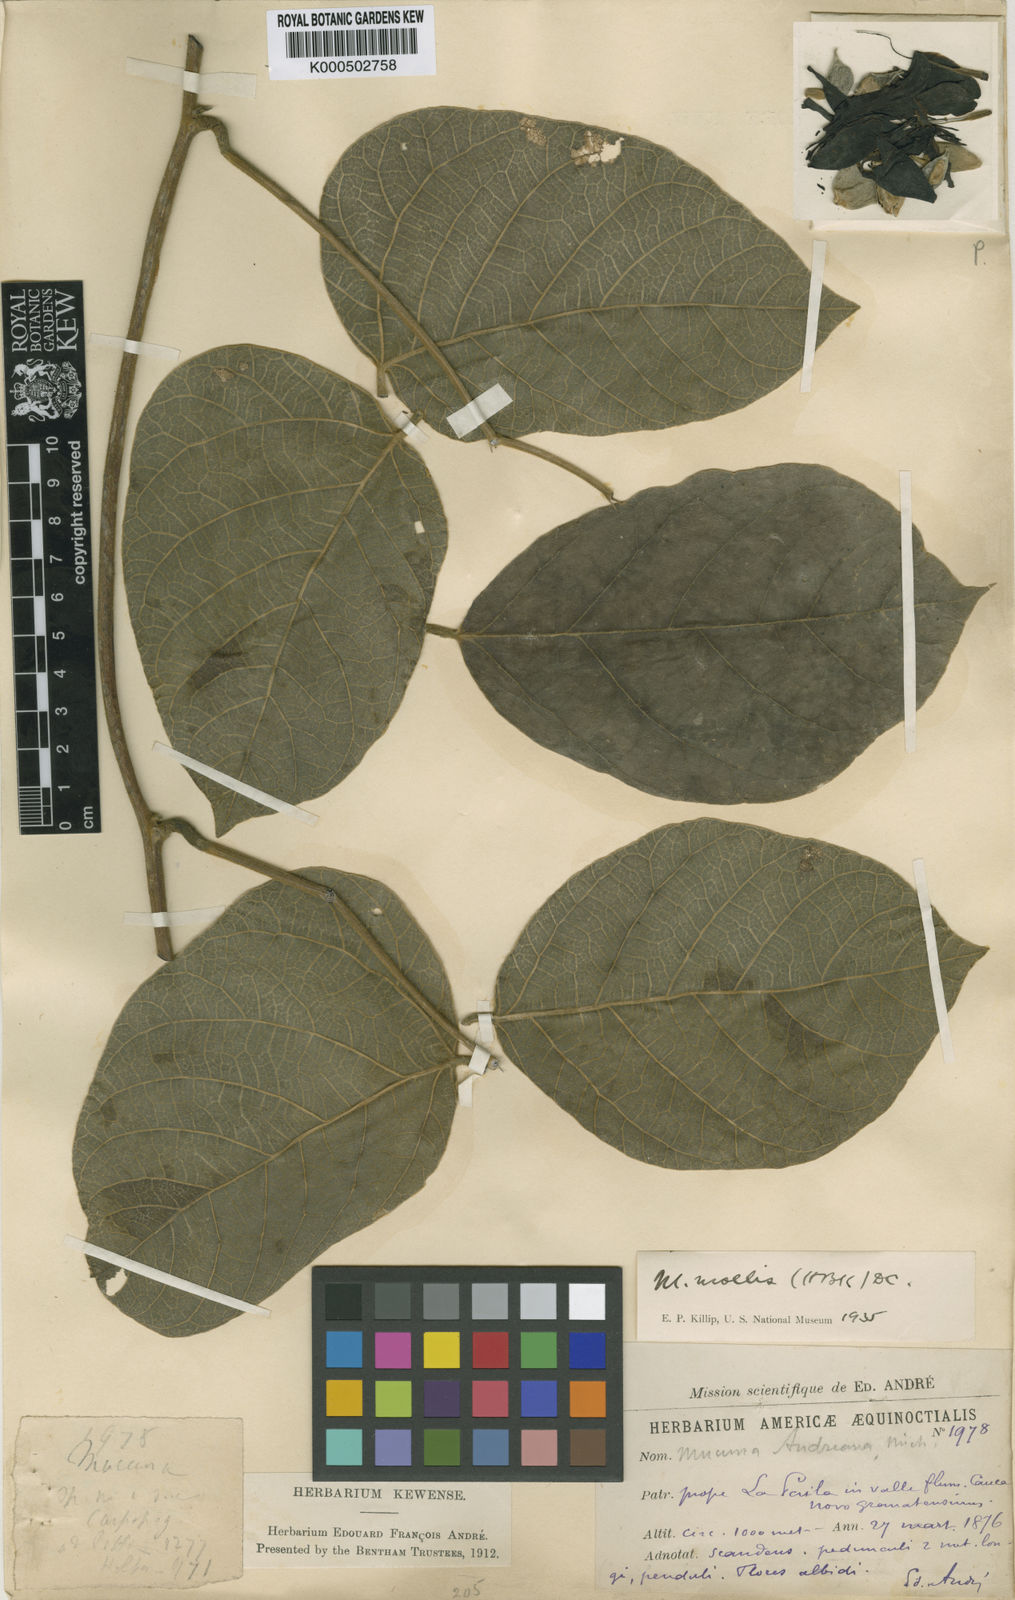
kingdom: Plantae
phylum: Tracheophyta
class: Magnoliopsida
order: Fabales
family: Fabaceae
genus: Mucuna
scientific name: Mucuna holtonii
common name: Hamburger bean
